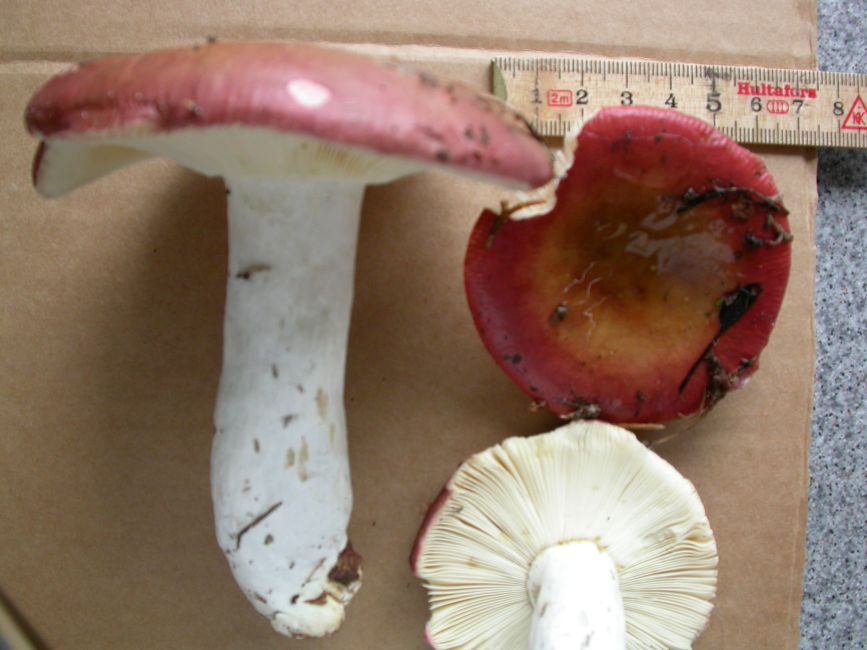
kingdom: Fungi
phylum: Basidiomycota
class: Agaricomycetes
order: Russulales
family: Russulaceae
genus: Russula
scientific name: Russula vinosa
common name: vinrød skørhat
